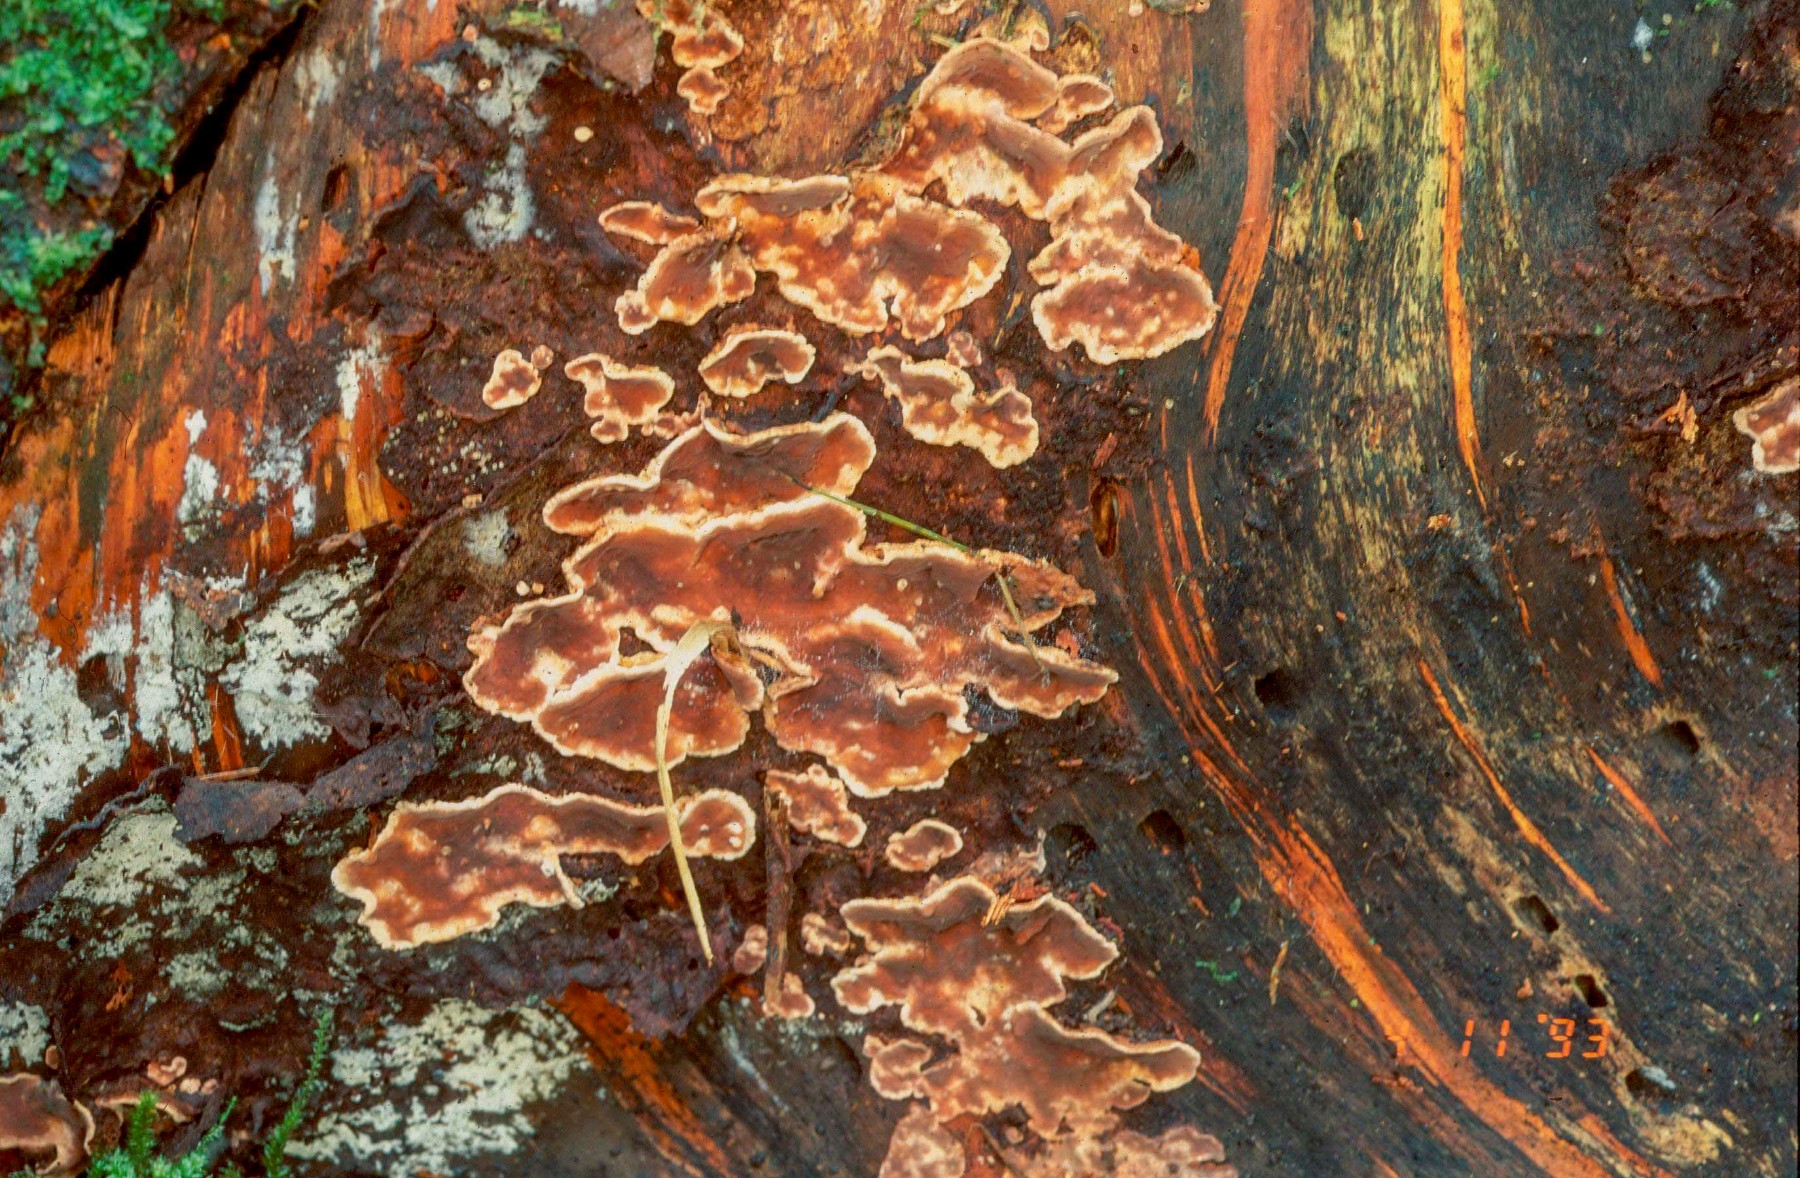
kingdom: Fungi
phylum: Basidiomycota
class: Agaricomycetes
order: Russulales
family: Echinodontiaceae
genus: Amylostereum
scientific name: Amylostereum areolatum
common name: brunviolet lædersvamp
